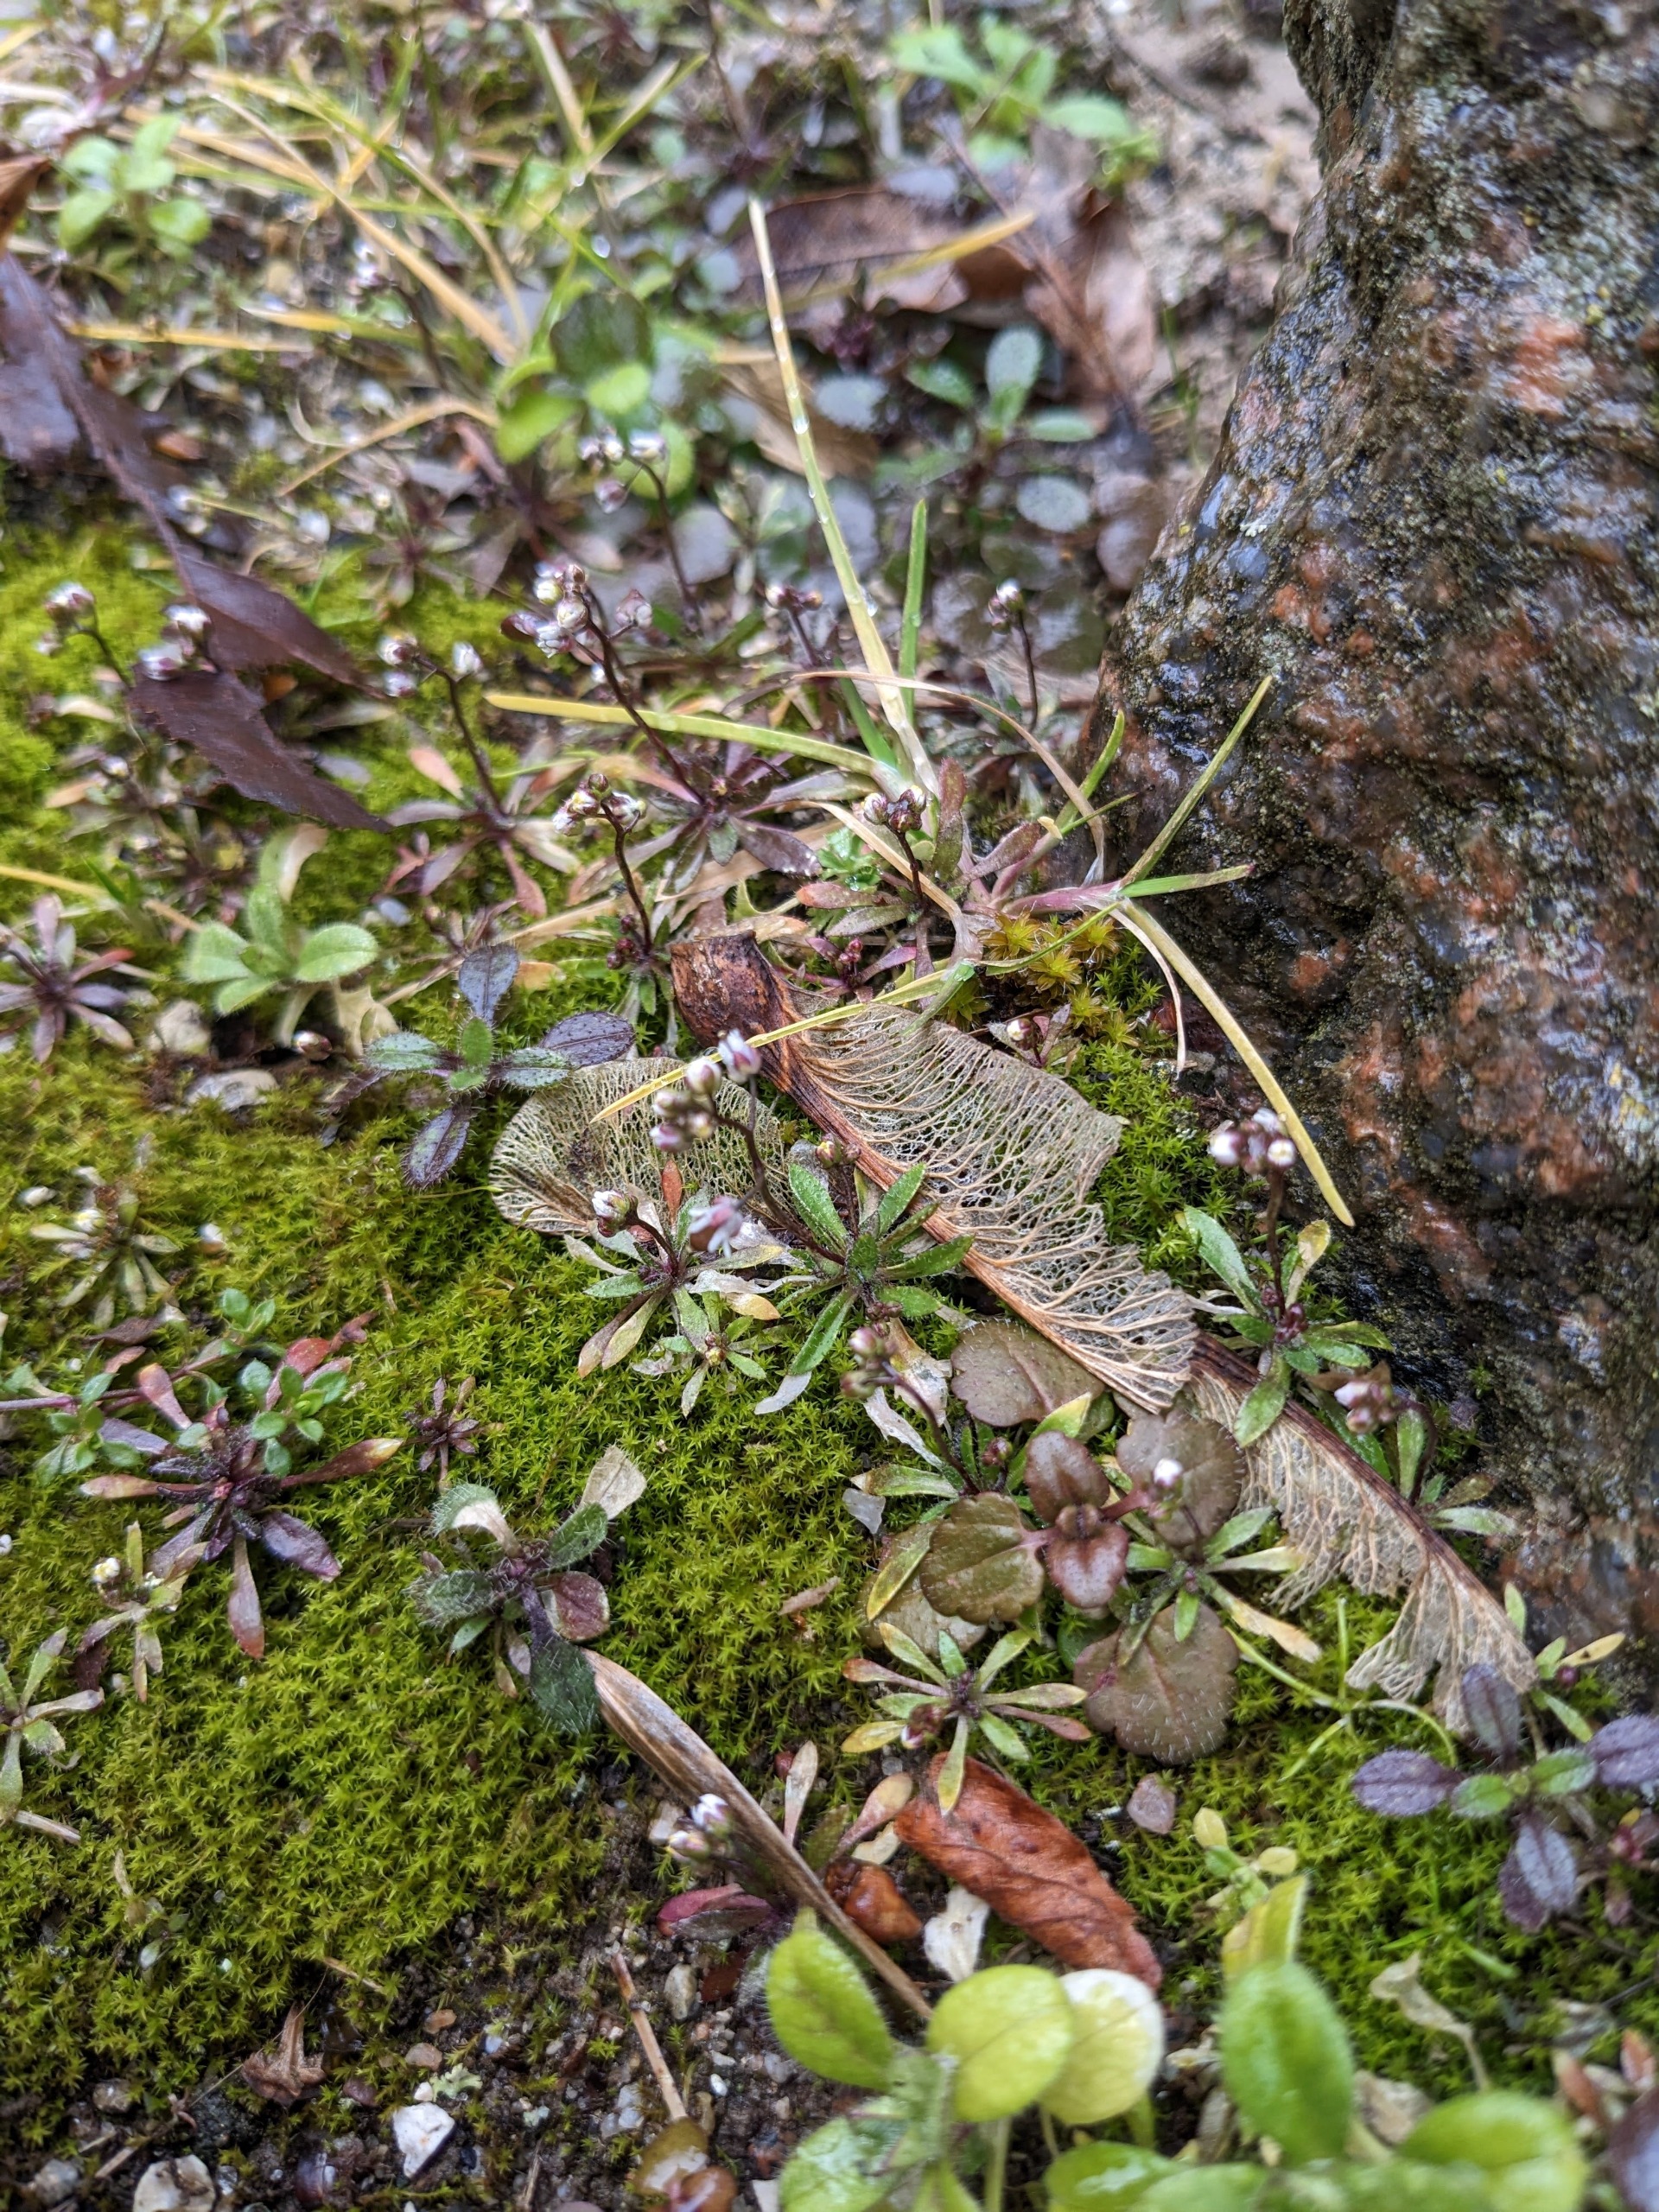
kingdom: Plantae
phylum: Tracheophyta
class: Magnoliopsida
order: Brassicales
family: Brassicaceae
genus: Draba
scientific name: Draba verna
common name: Vår-gæslingeblomst
